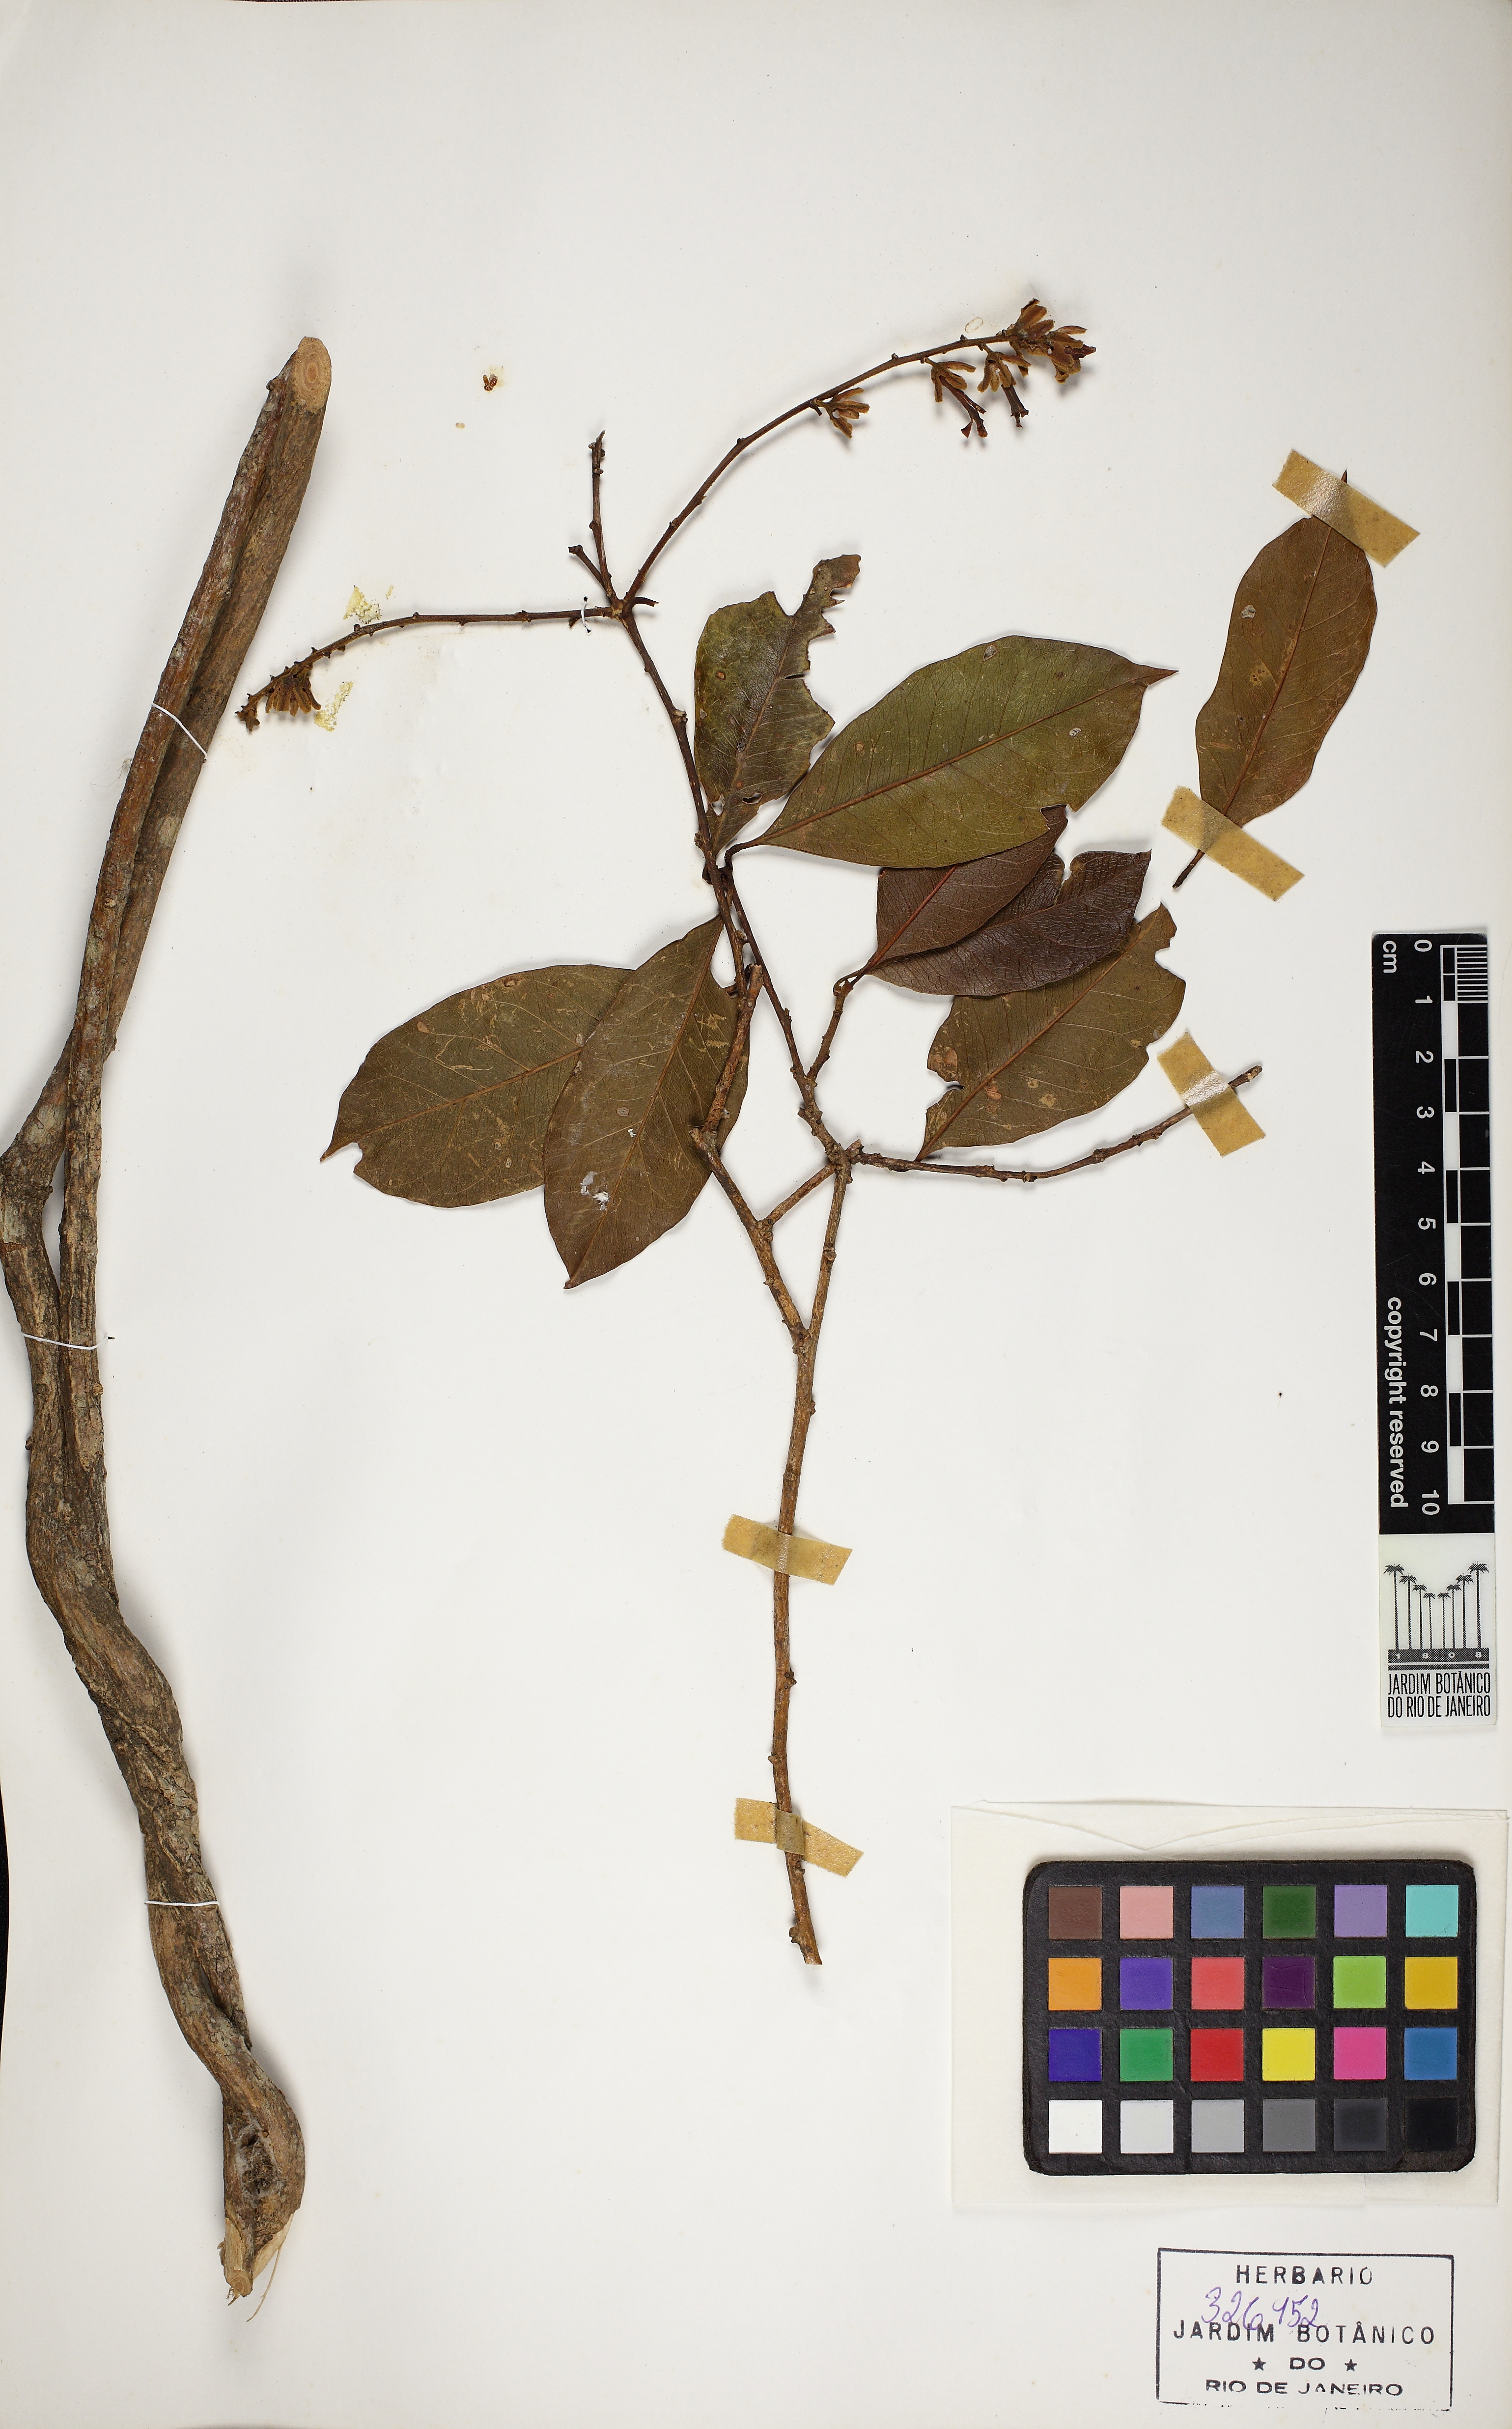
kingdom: Plantae
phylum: Tracheophyta
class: Magnoliopsida
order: Fabales
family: Polygalaceae
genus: Diclidanthera
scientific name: Diclidanthera laurifolia
